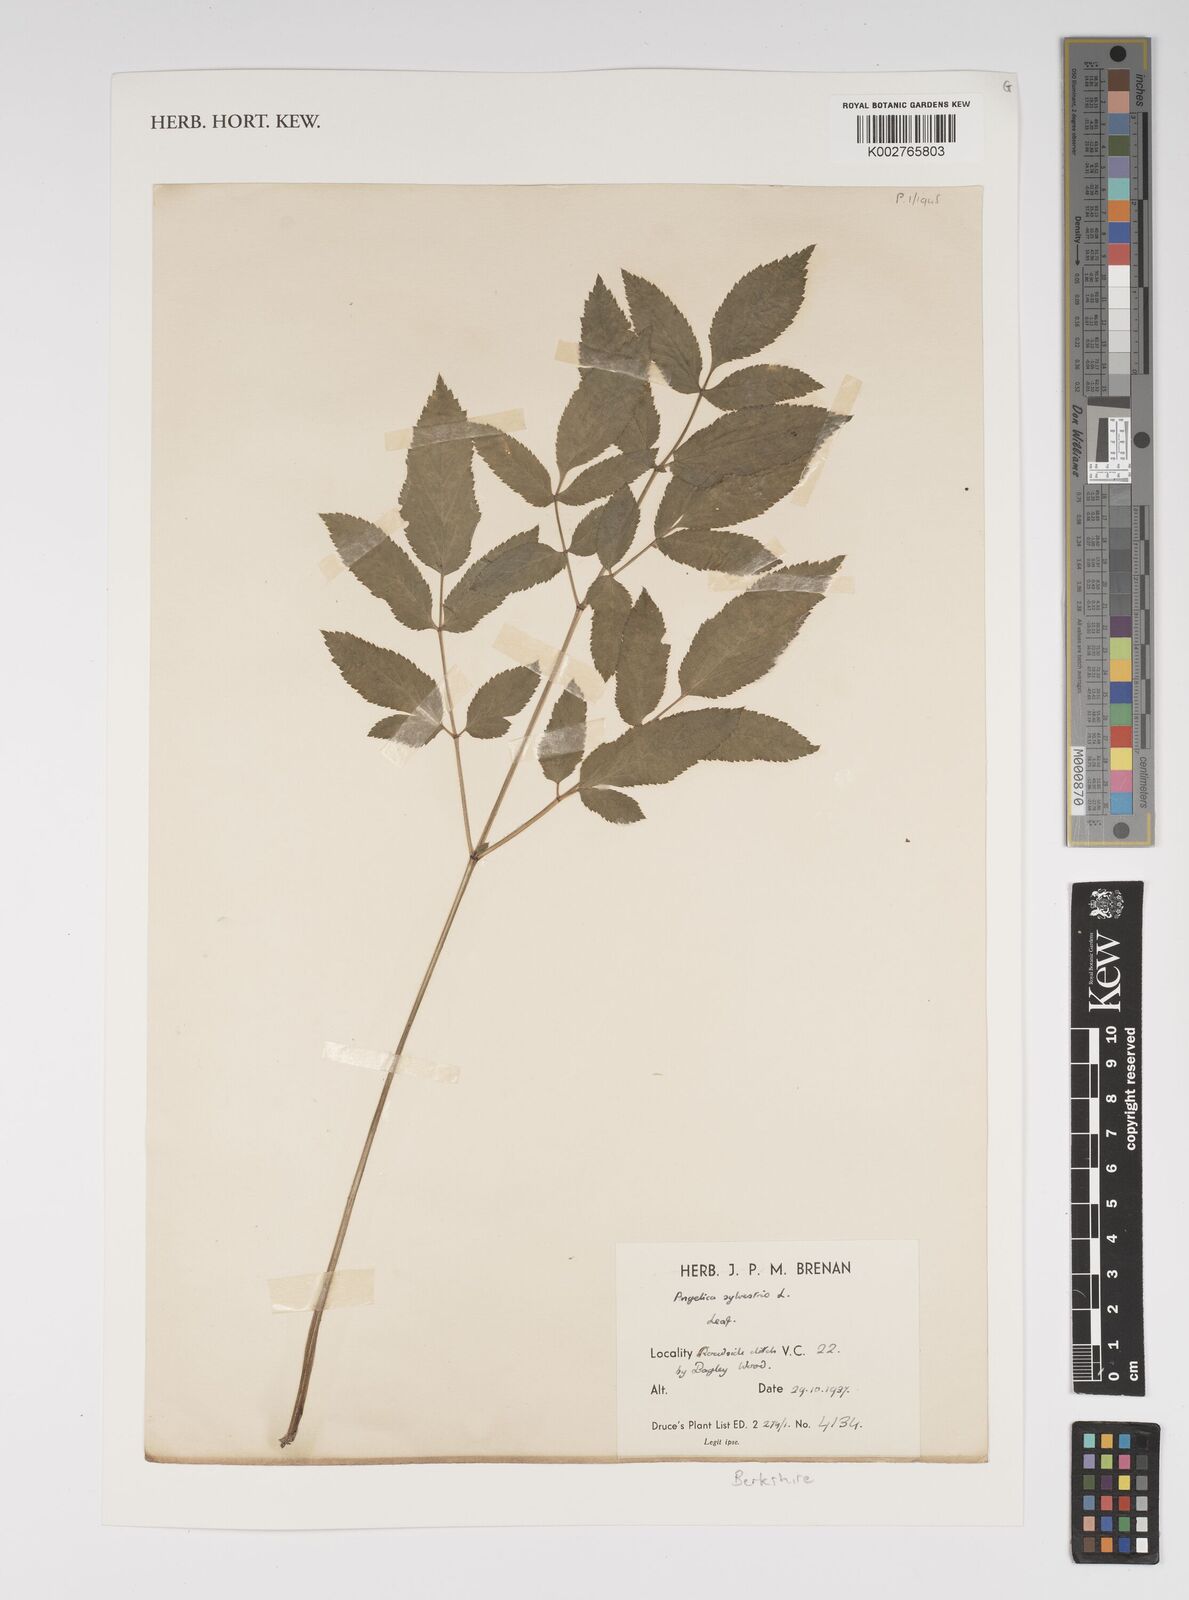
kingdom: Plantae
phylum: Tracheophyta
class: Magnoliopsida
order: Apiales
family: Apiaceae
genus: Angelica
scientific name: Angelica sylvestris
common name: Wild angelica
